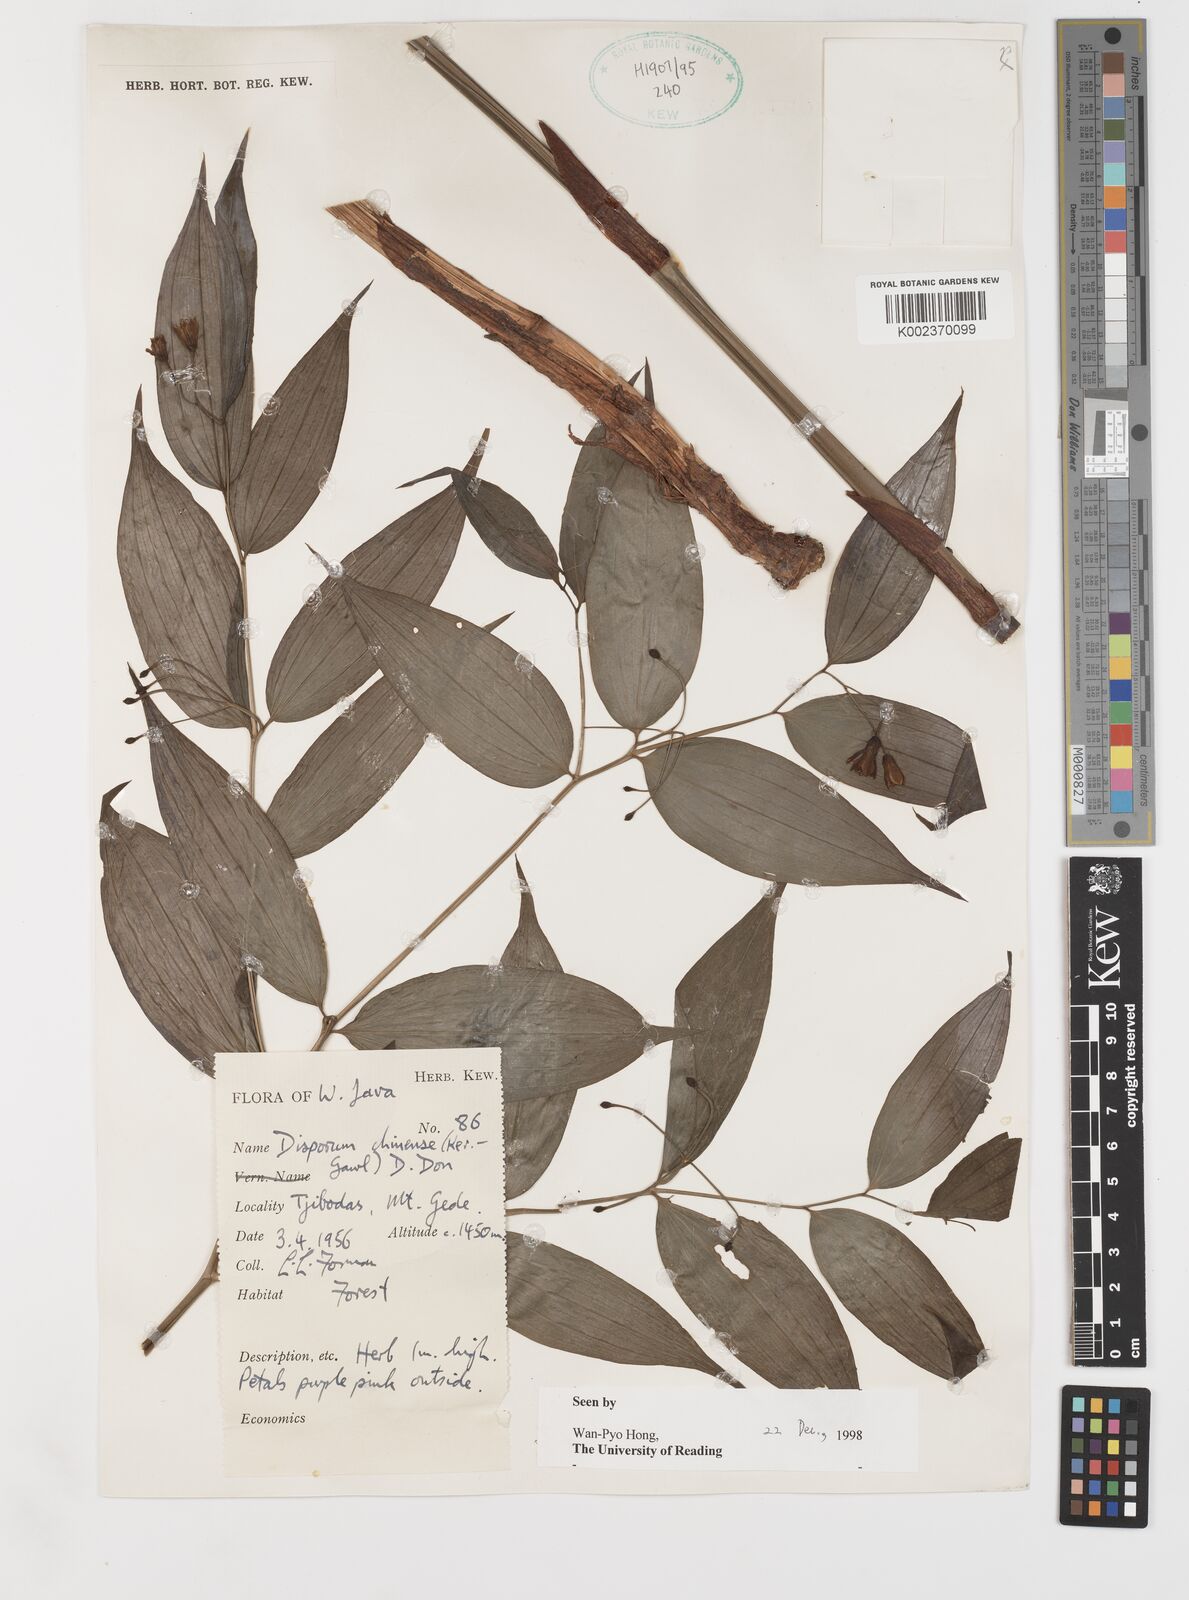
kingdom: Plantae
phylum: Tracheophyta
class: Liliopsida
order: Liliales
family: Colchicaceae
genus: Disporum
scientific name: Disporum cantoniense
